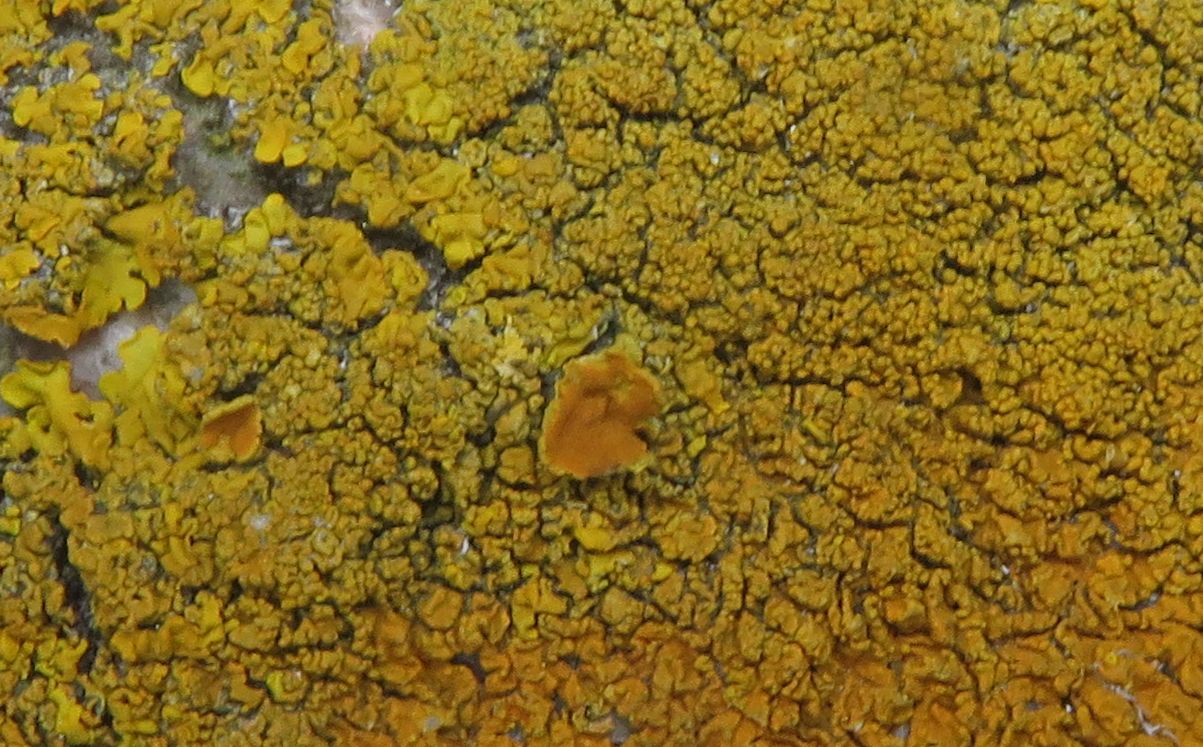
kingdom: Fungi
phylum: Ascomycota
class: Lecanoromycetes
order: Teloschistales
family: Teloschistaceae
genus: Xanthoria
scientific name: Xanthoria calcicola
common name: vortet væggelav
